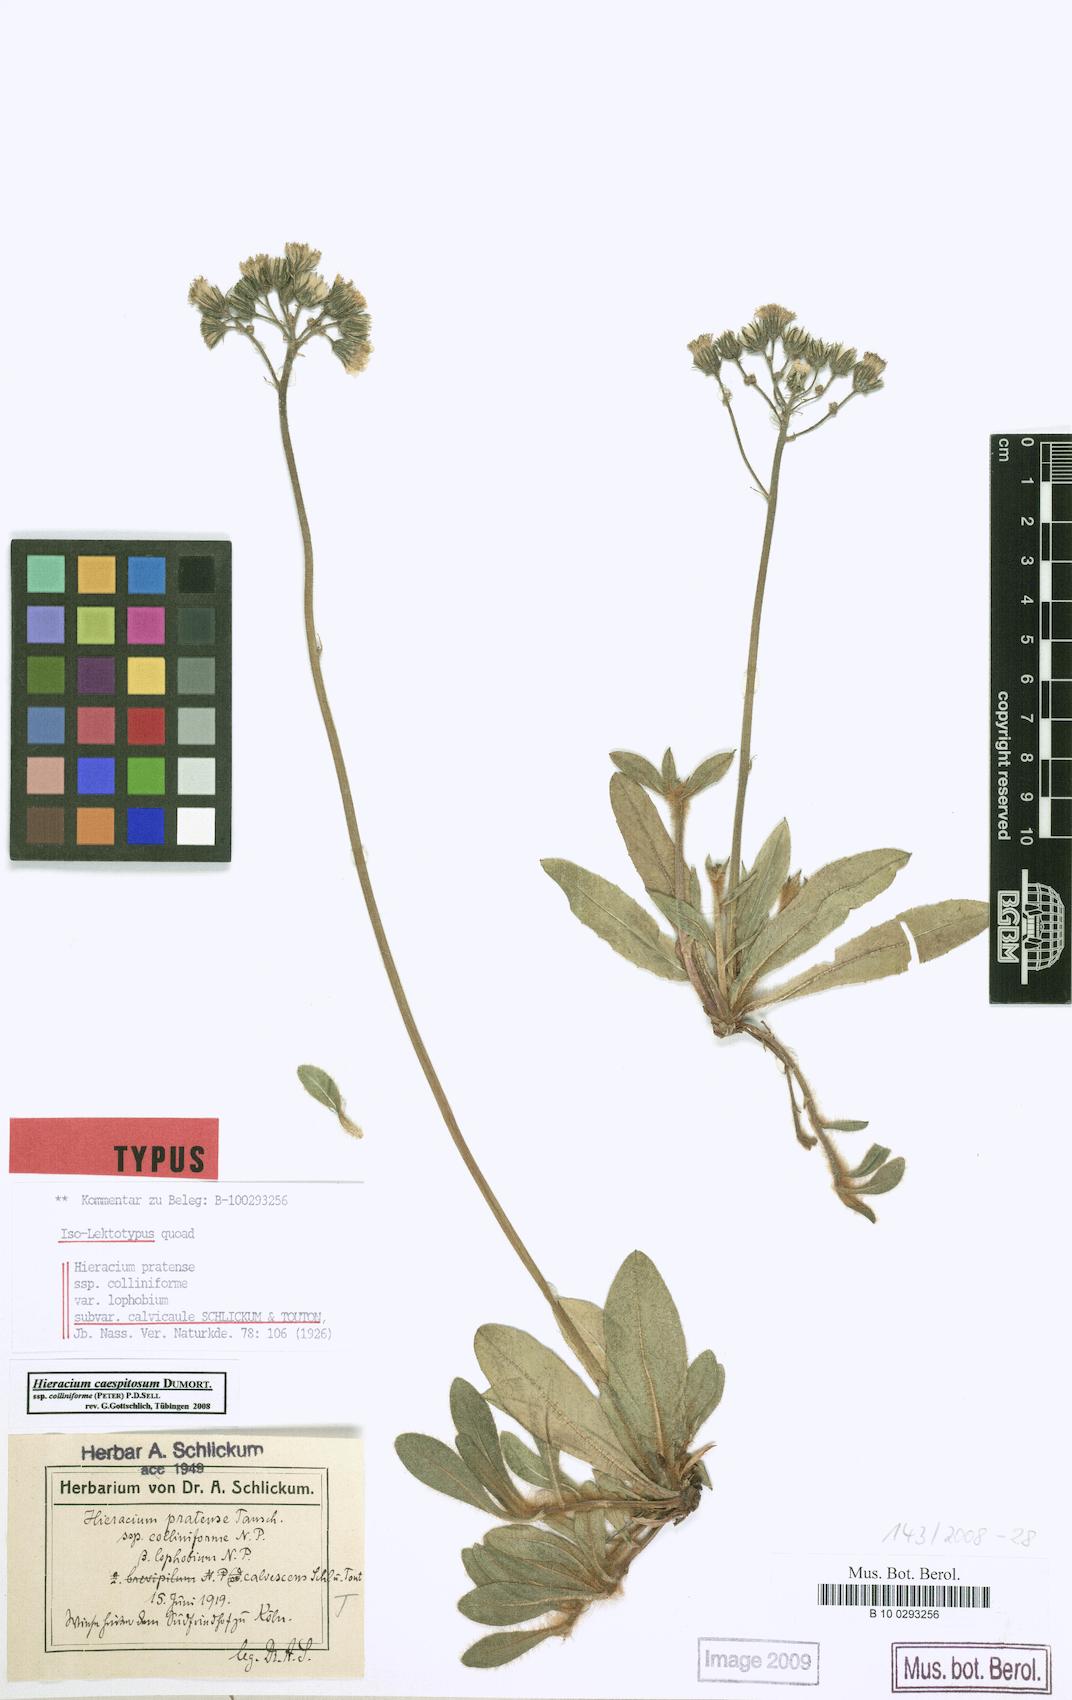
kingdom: Plantae
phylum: Tracheophyta
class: Magnoliopsida
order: Asterales
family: Asteraceae
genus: Pilosella
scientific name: Pilosella caespitosa
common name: Yellow fox-and-cubs
